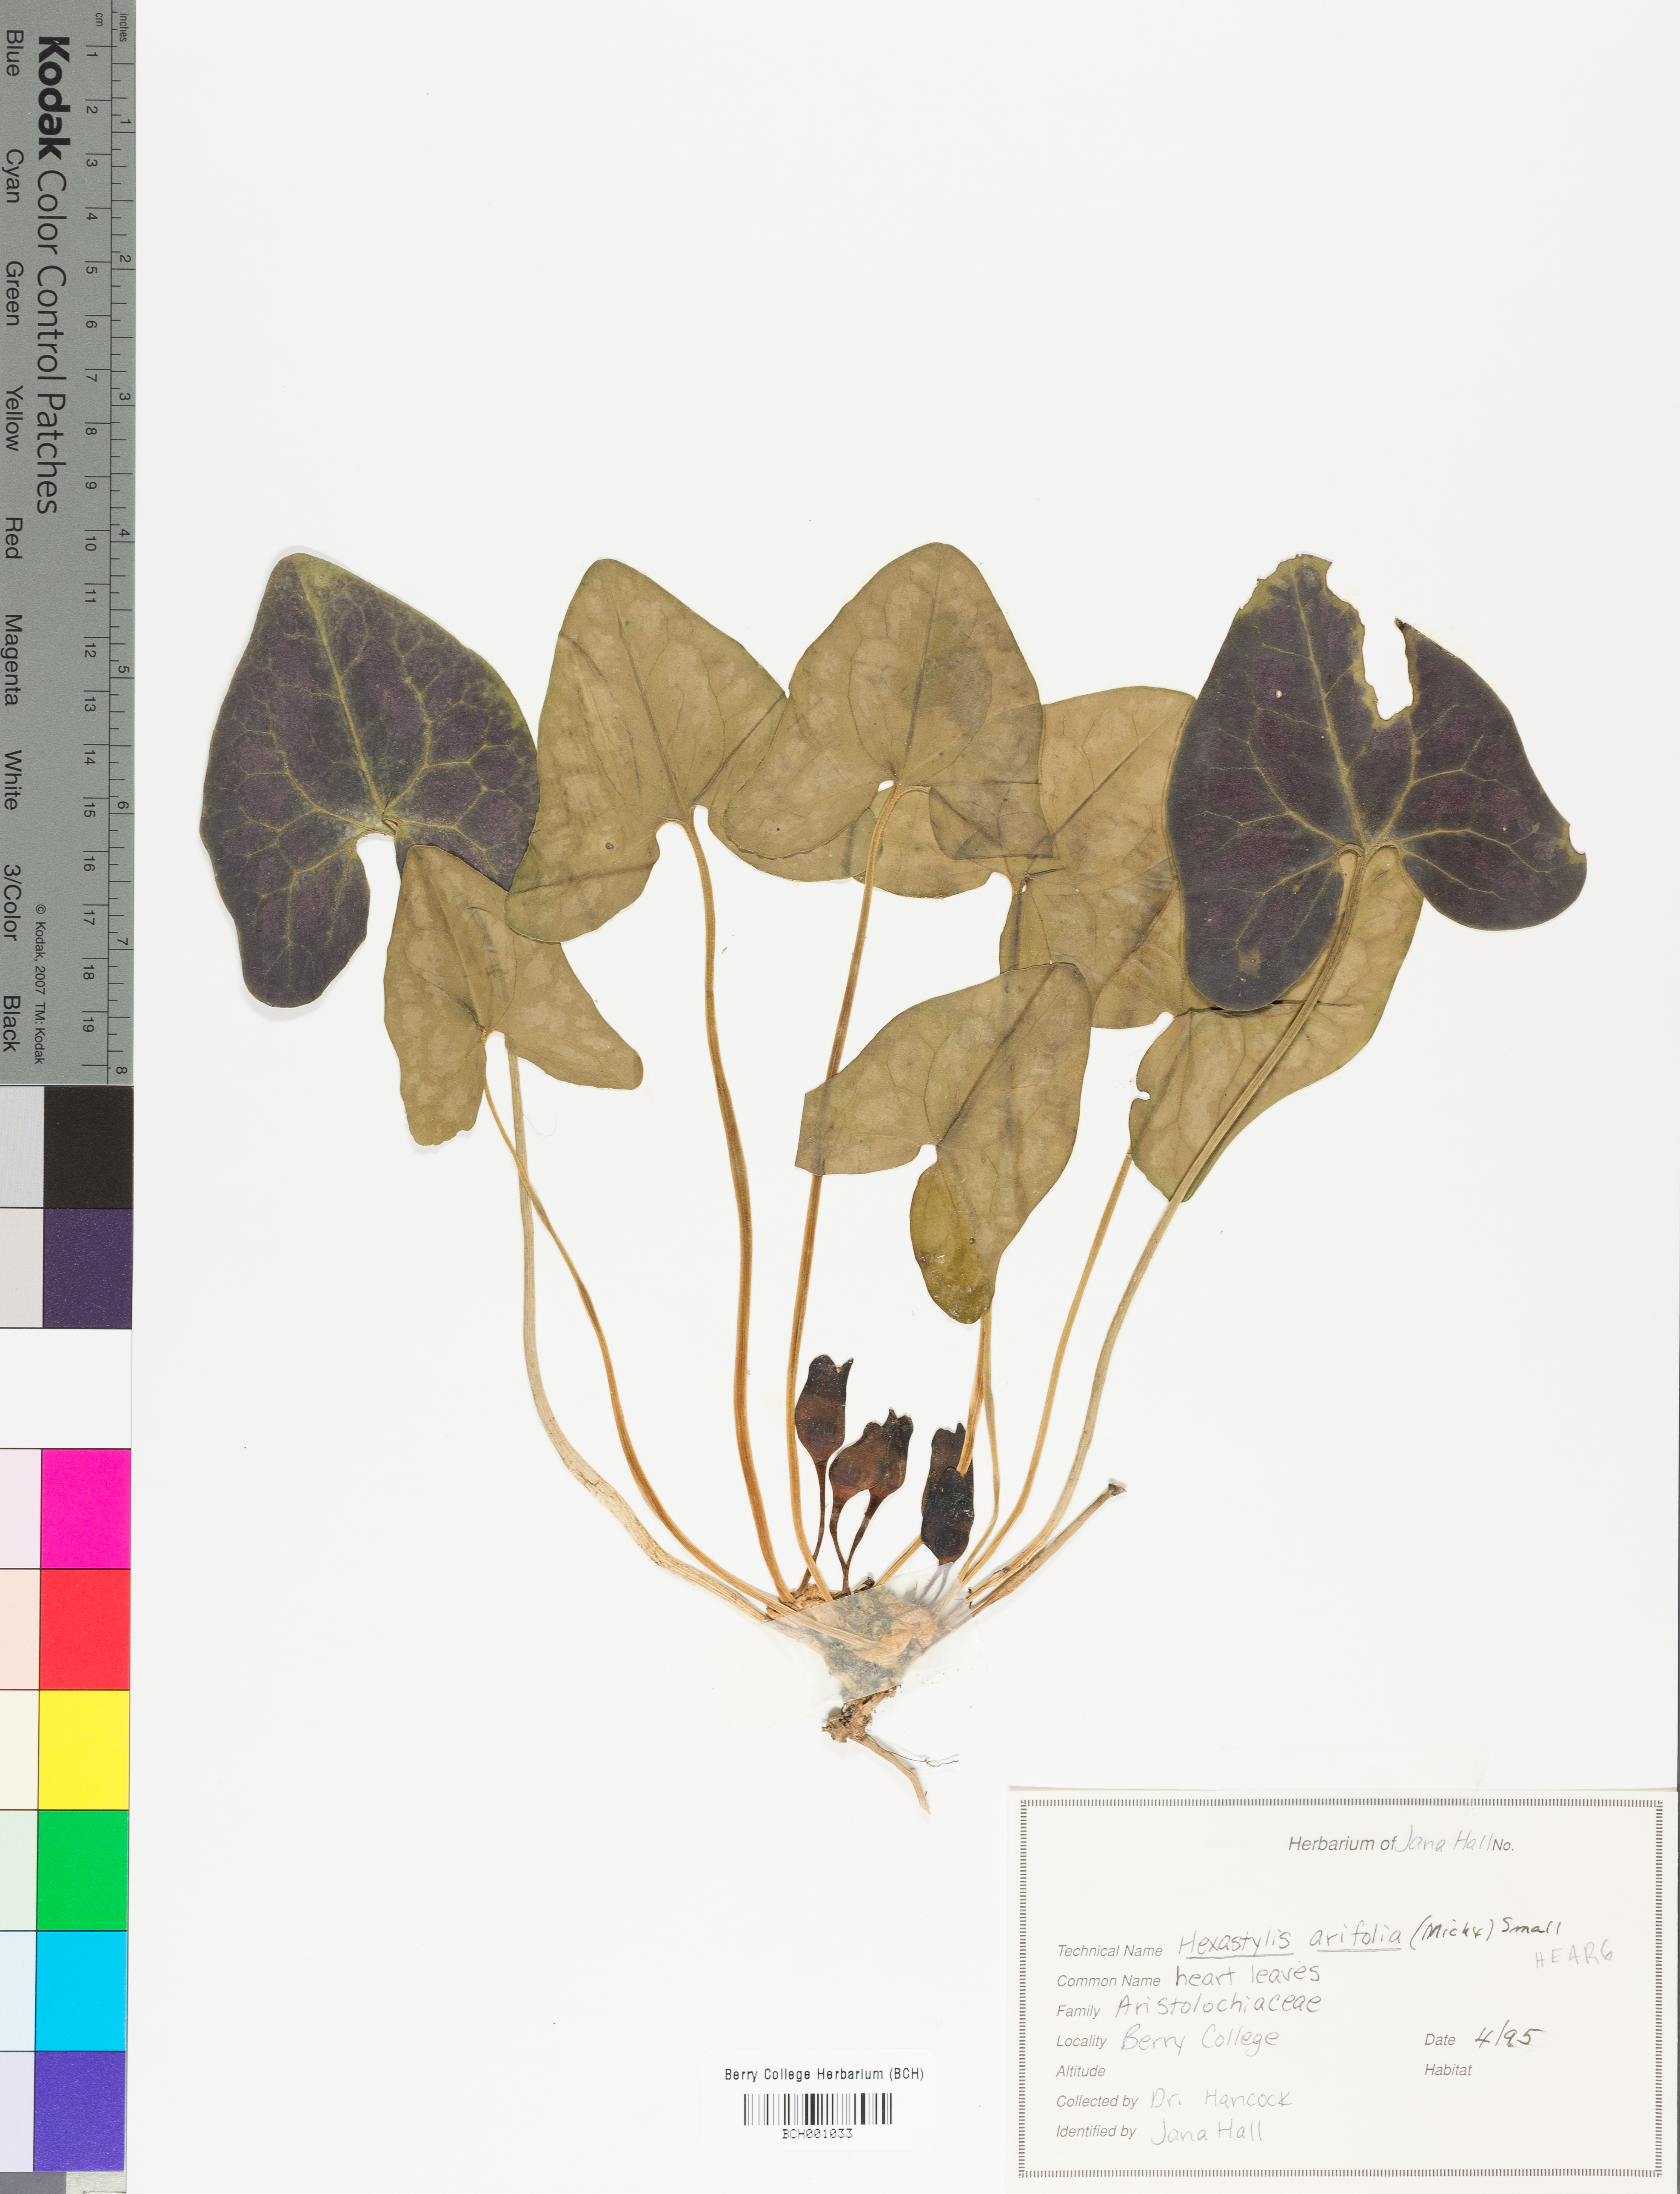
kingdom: Plantae
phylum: Tracheophyta
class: Magnoliopsida
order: Piperales
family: Aristolochiaceae
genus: Hexastylis
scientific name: Hexastylis arifolia
